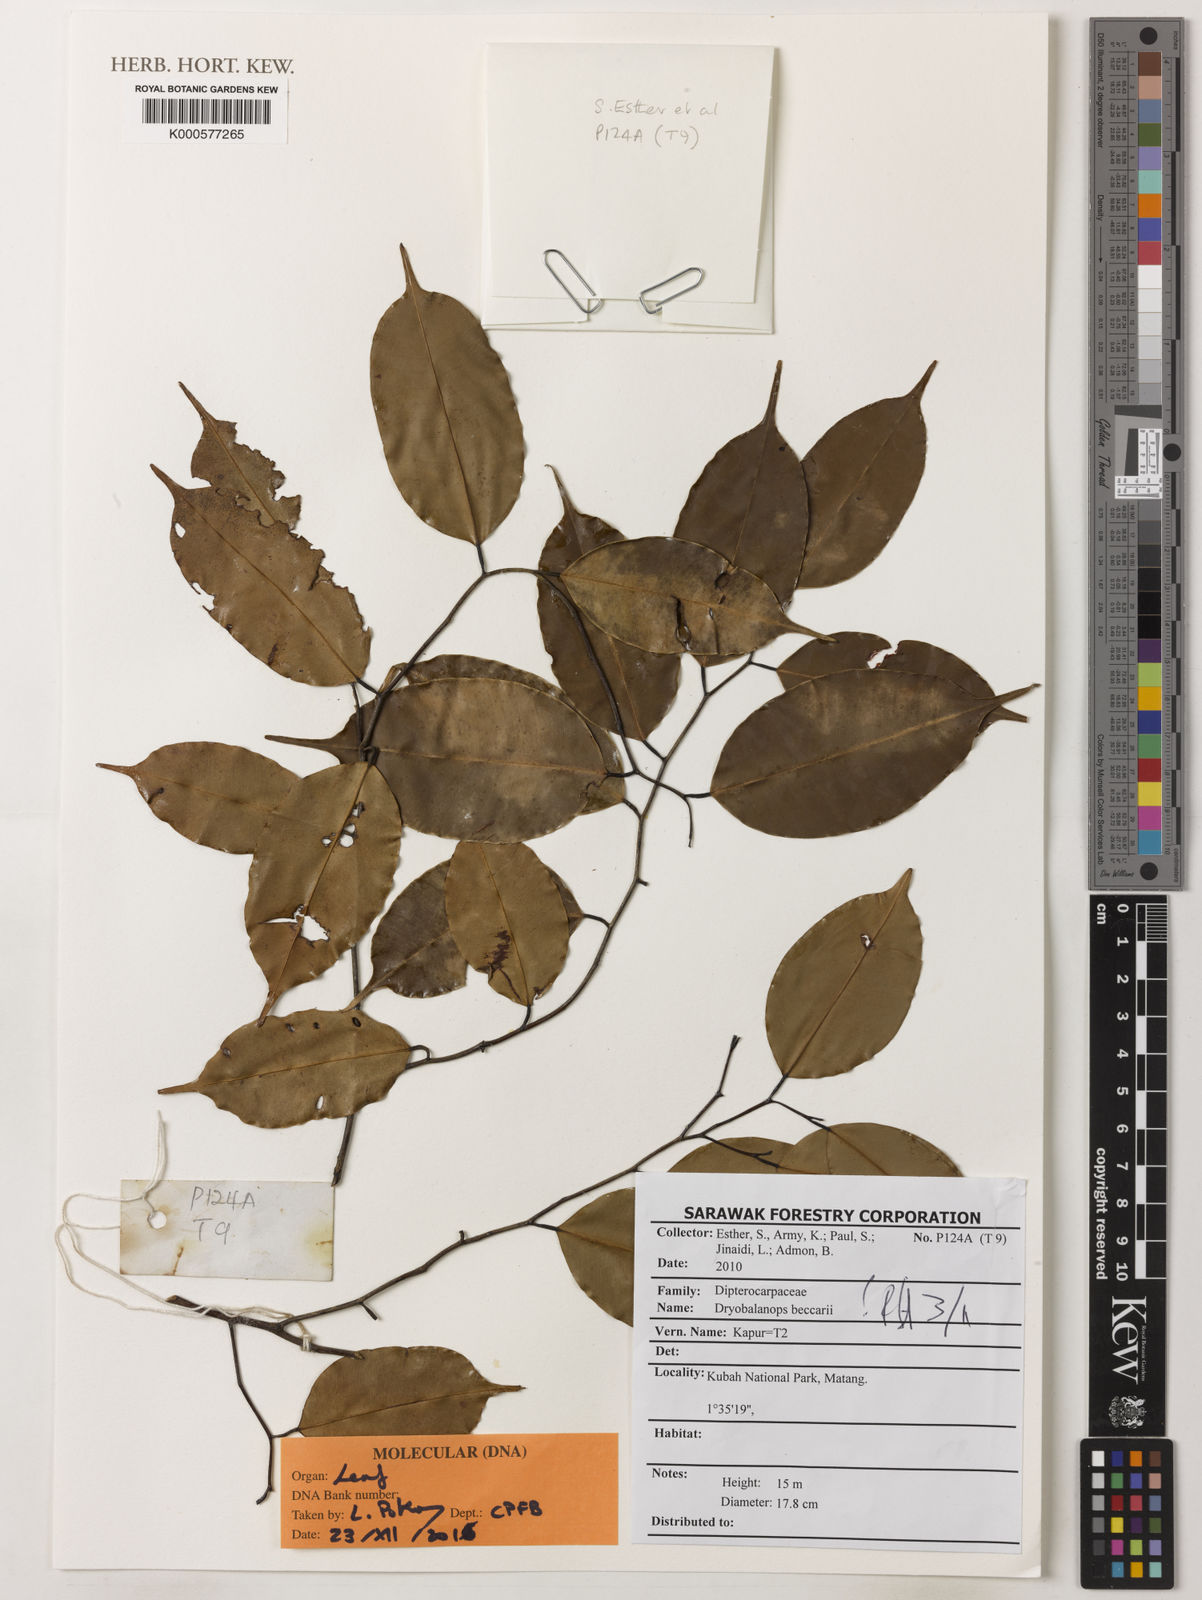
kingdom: Plantae
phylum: Tracheophyta
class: Magnoliopsida
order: Malvales
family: Dipterocarpaceae
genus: Dryobalanops
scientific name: Dryobalanops beccarii
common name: Sabah kapur
